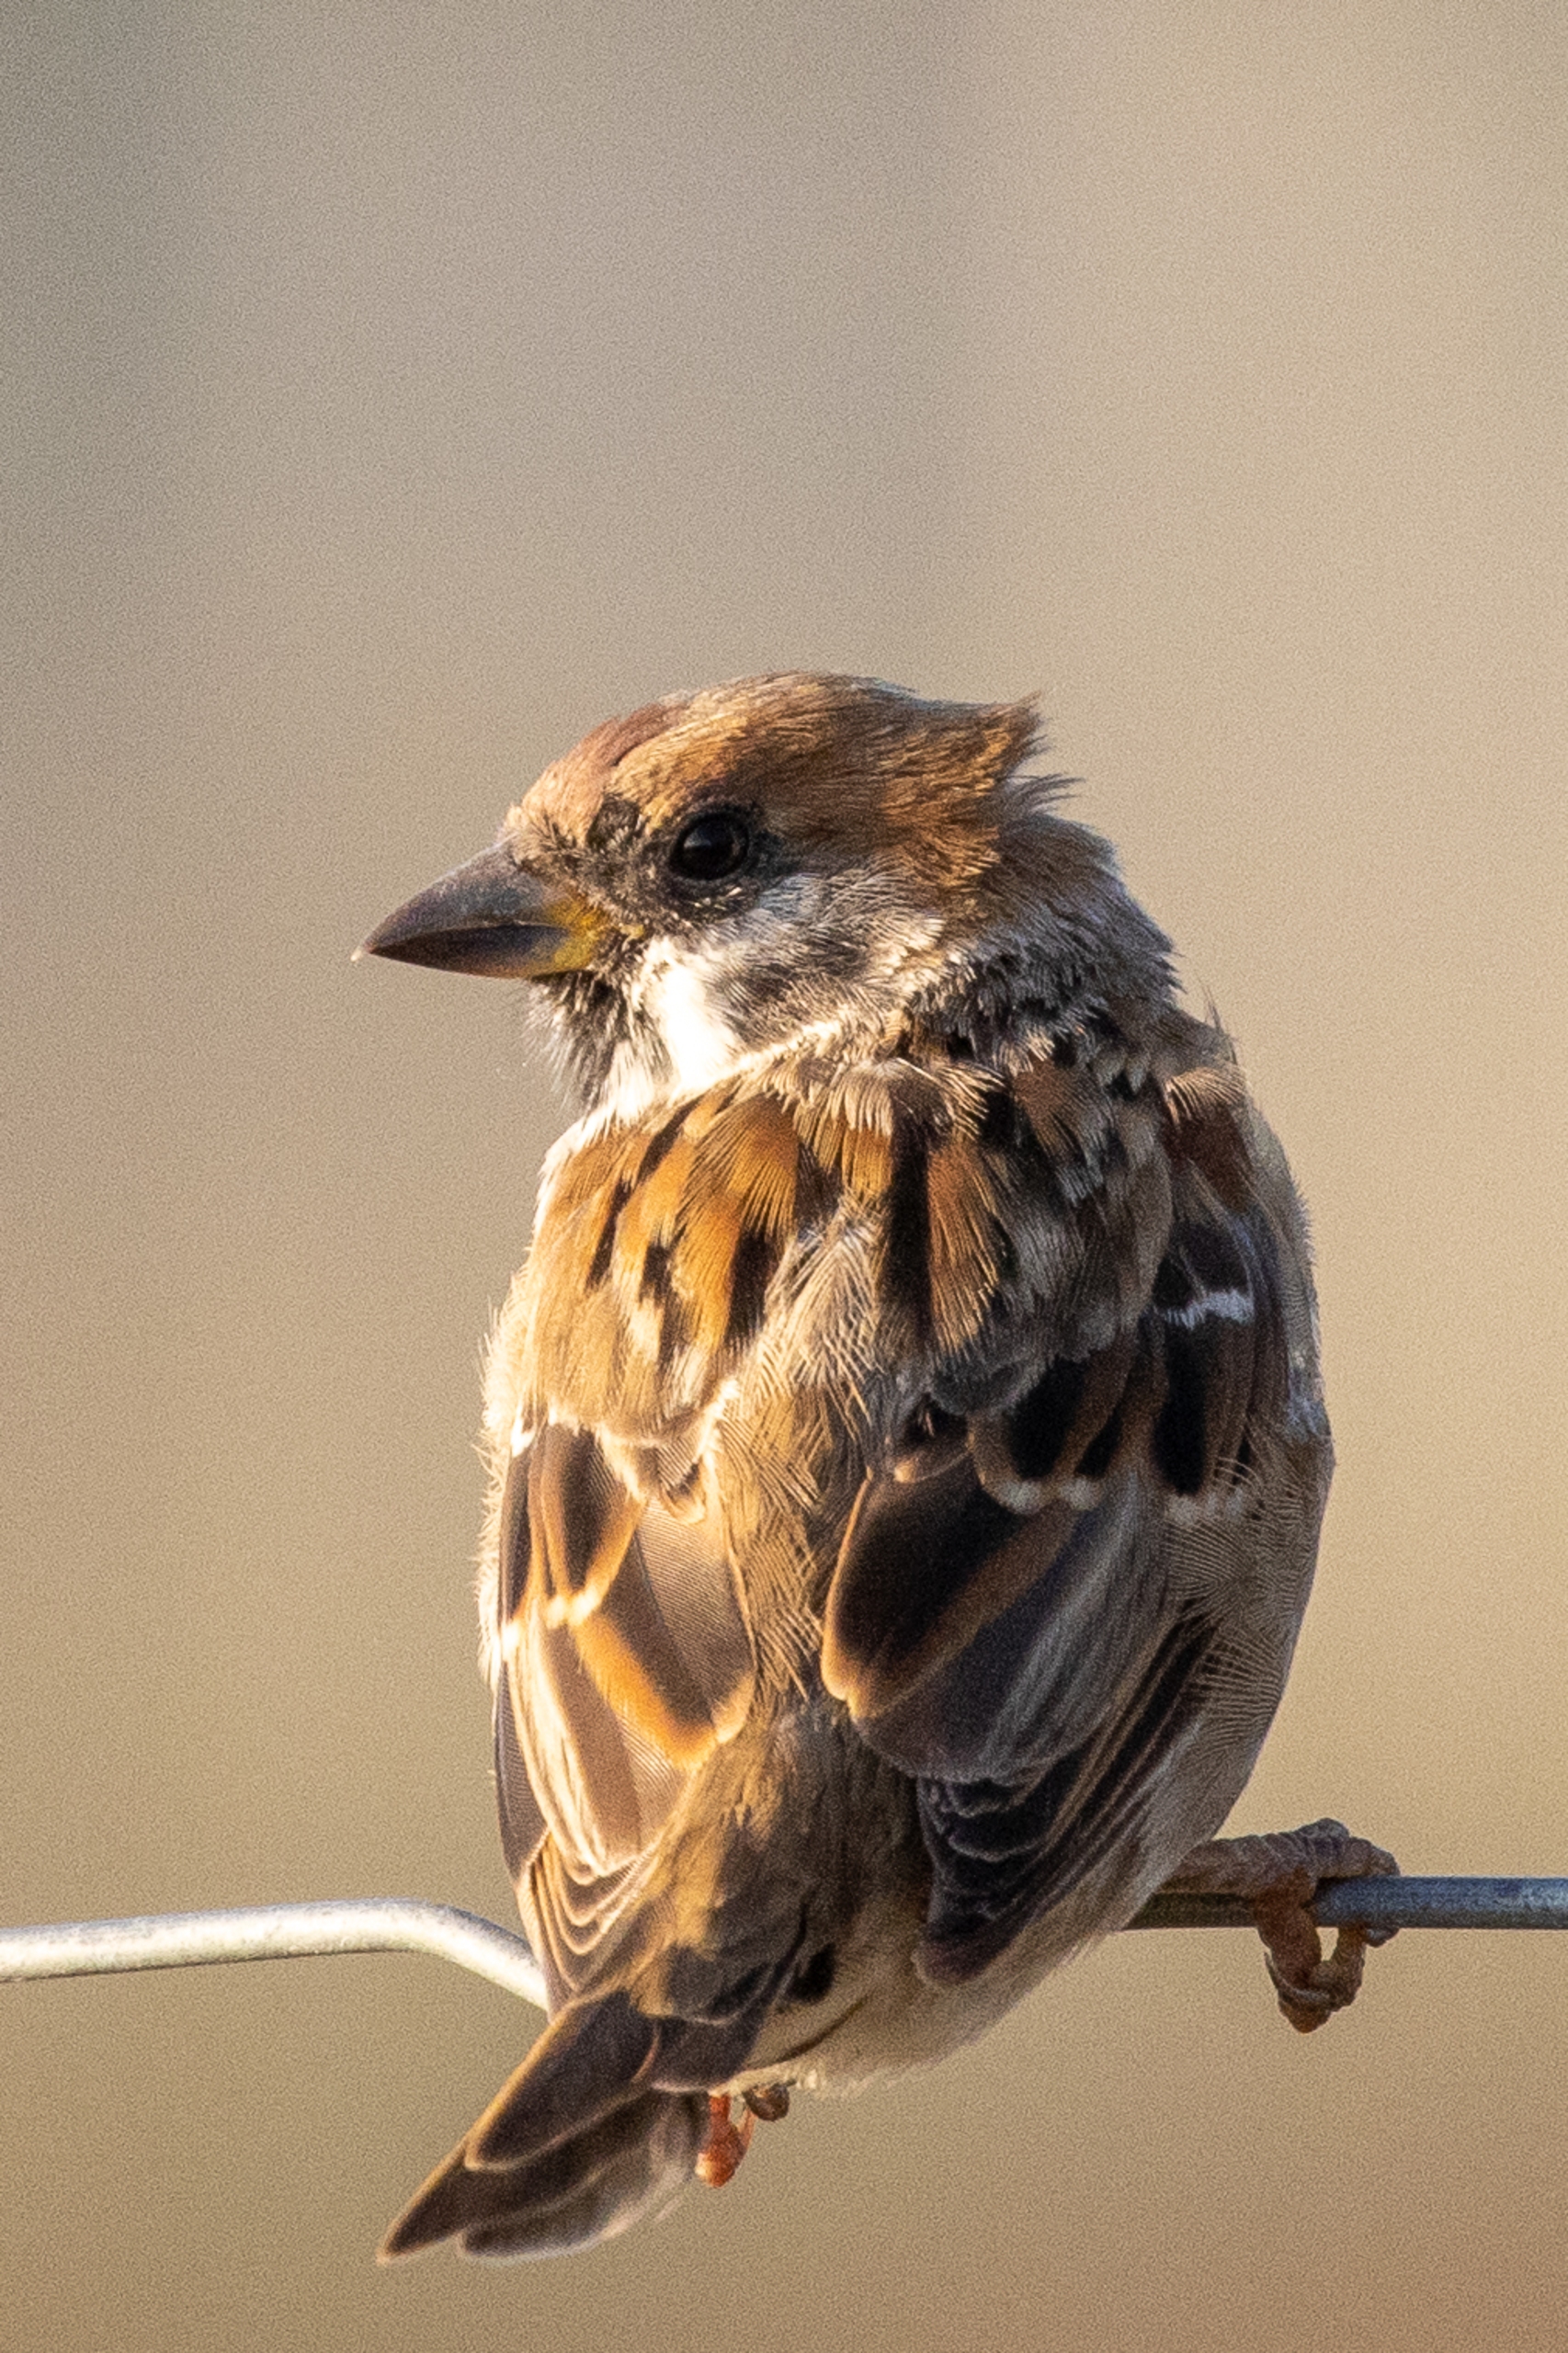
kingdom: Animalia
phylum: Chordata
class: Aves
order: Passeriformes
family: Passeridae
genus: Passer
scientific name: Passer montanus
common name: Skovspurv
